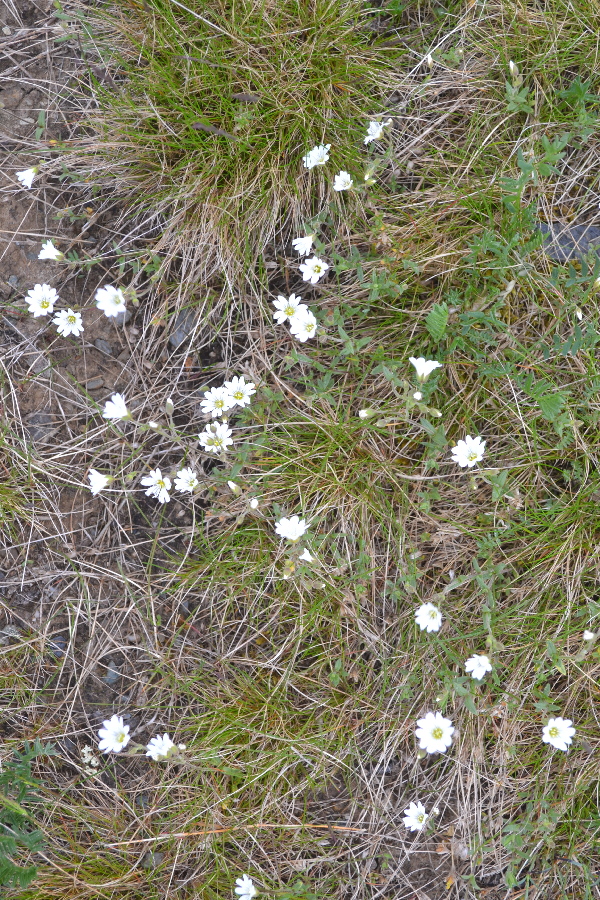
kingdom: Plantae
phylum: Tracheophyta
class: Magnoliopsida
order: Caryophyllales
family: Caryophyllaceae
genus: Cerastium
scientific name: Cerastium arvense
